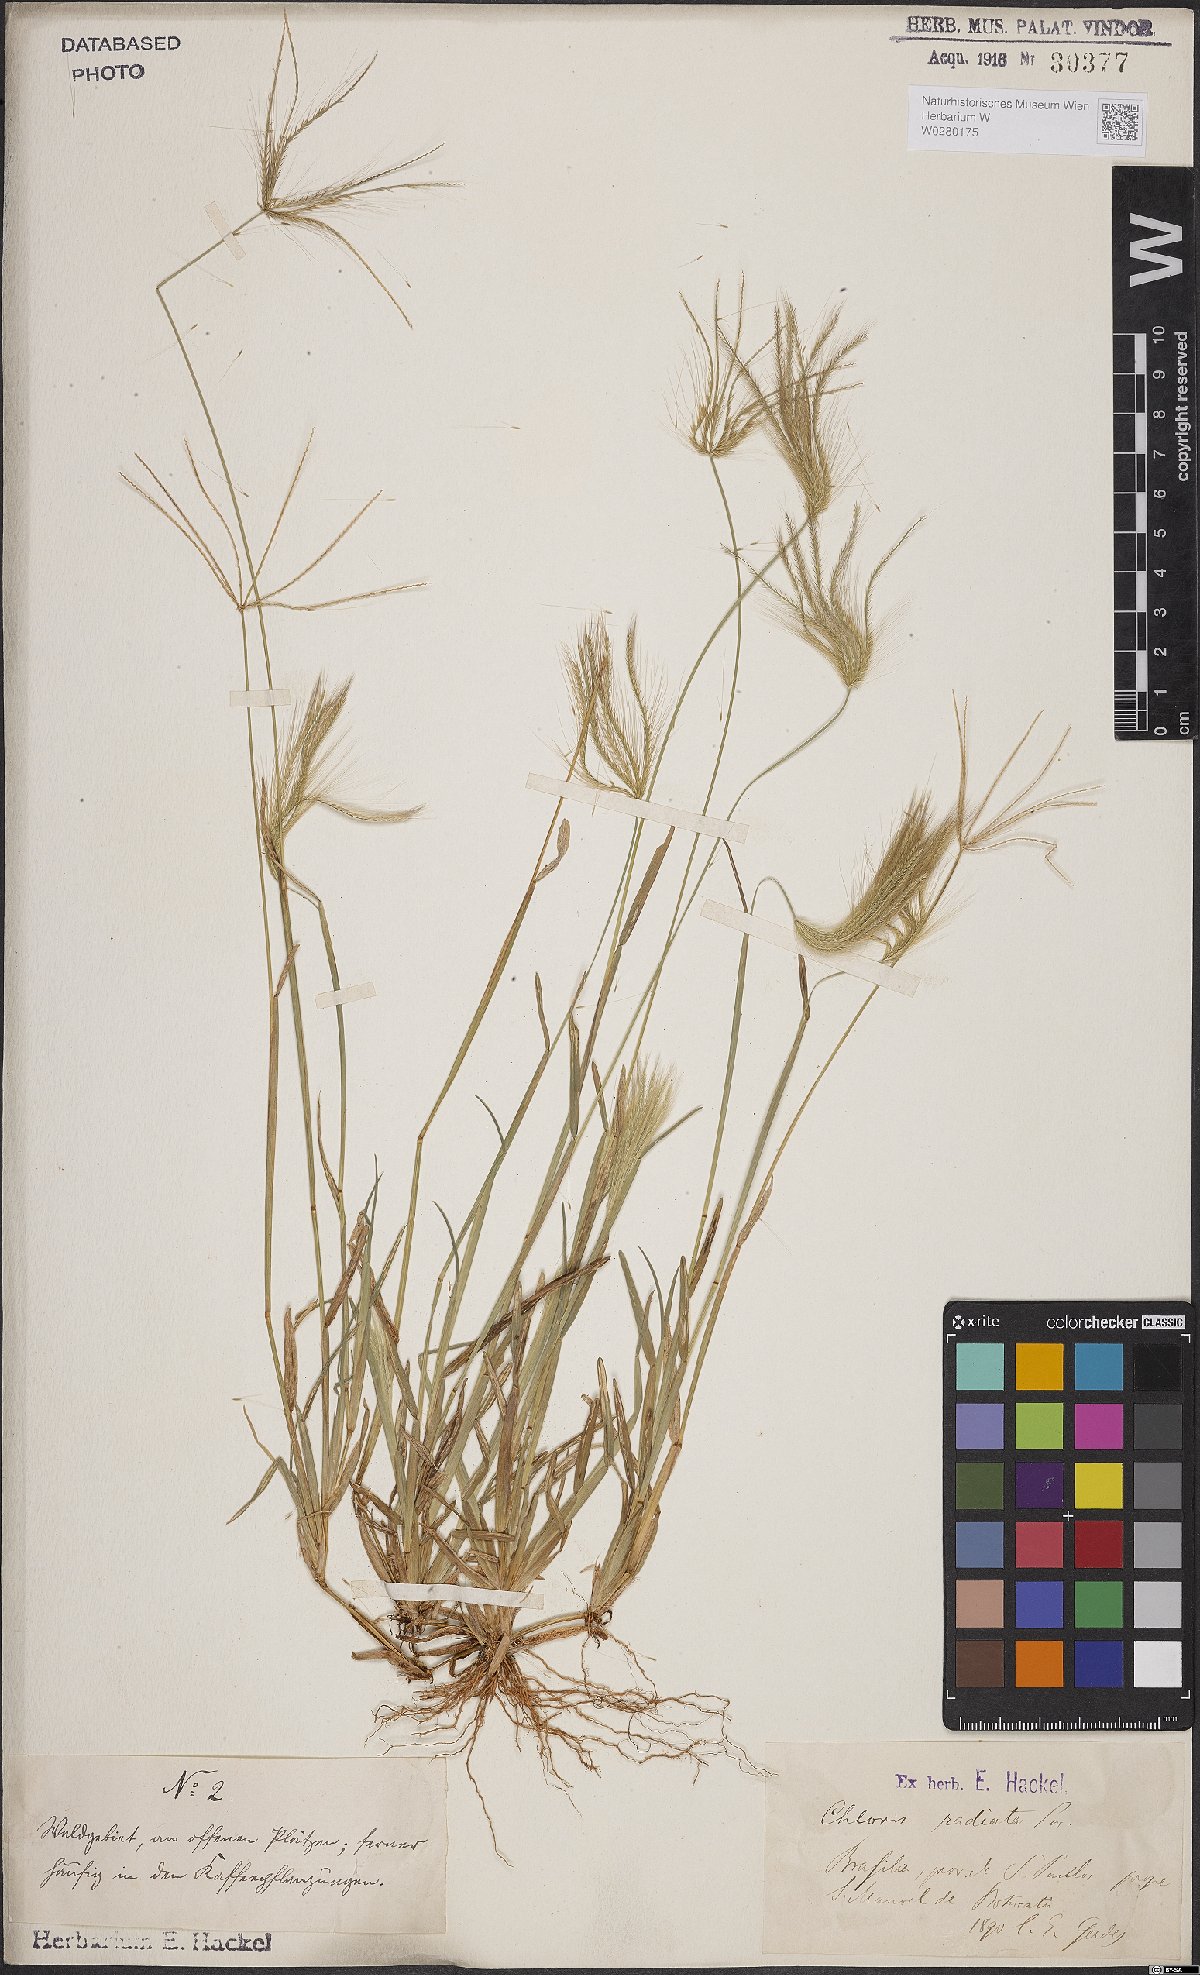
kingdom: Plantae
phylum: Tracheophyta
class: Liliopsida
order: Poales
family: Poaceae
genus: Chloris
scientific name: Chloris radiata
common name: Radiate fingergrass
